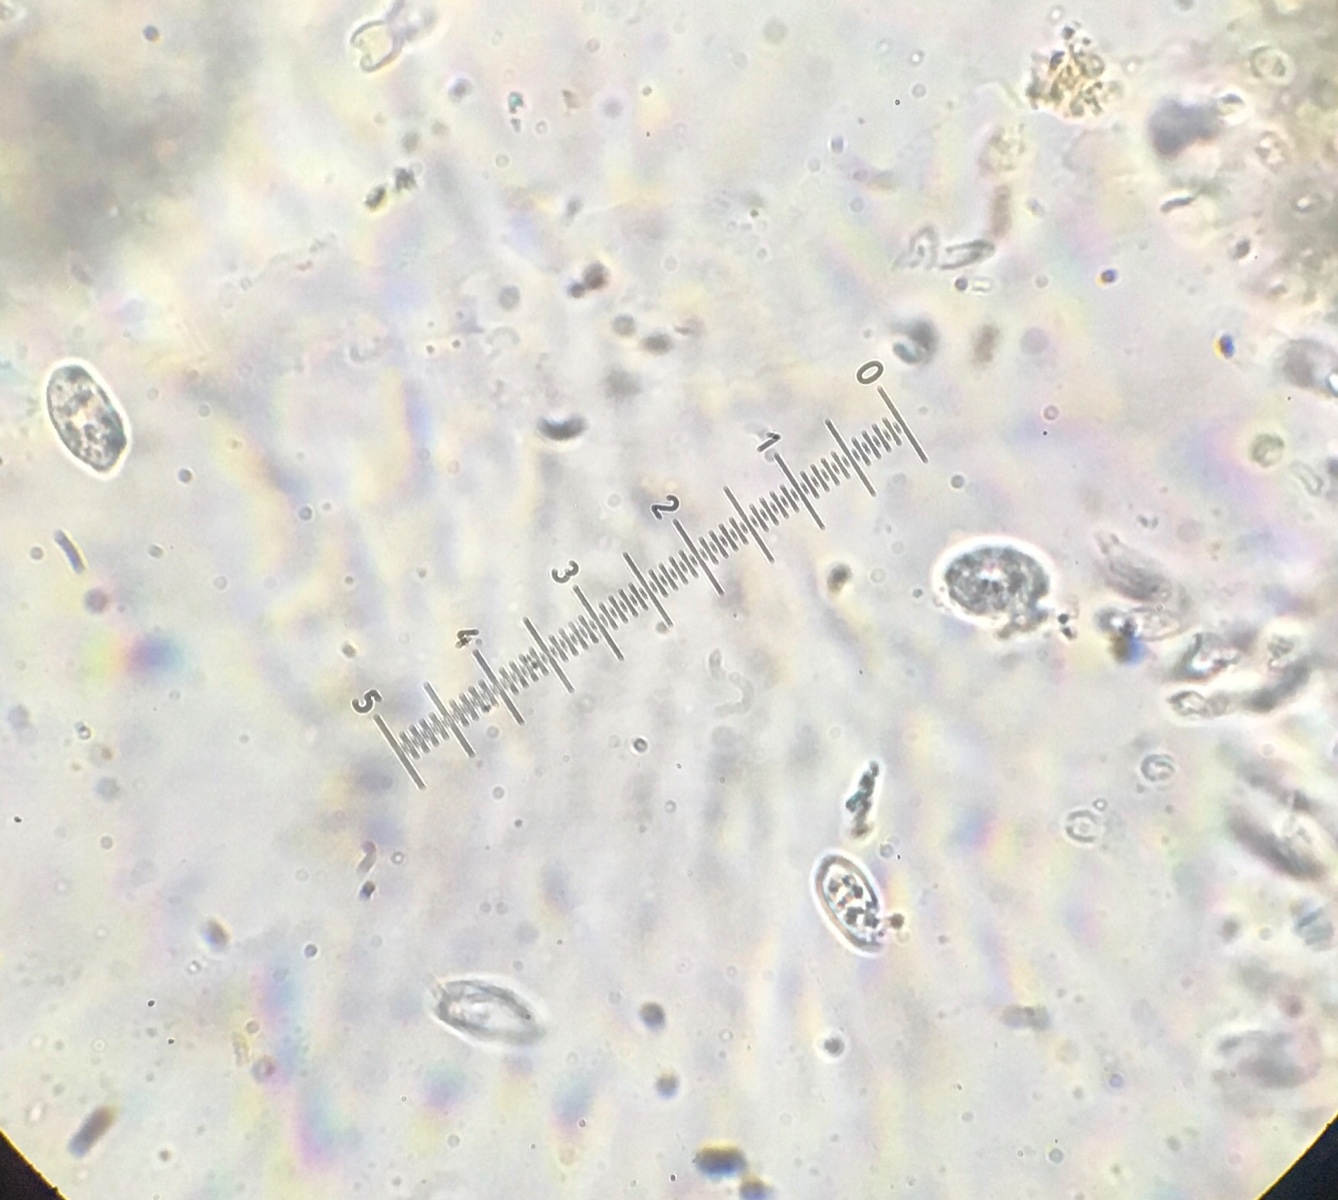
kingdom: Fungi
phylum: Ascomycota
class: Dothideomycetes
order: Botryosphaeriales
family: Botryosphaeriaceae
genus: Diplodia
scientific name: Diplodia taxi
